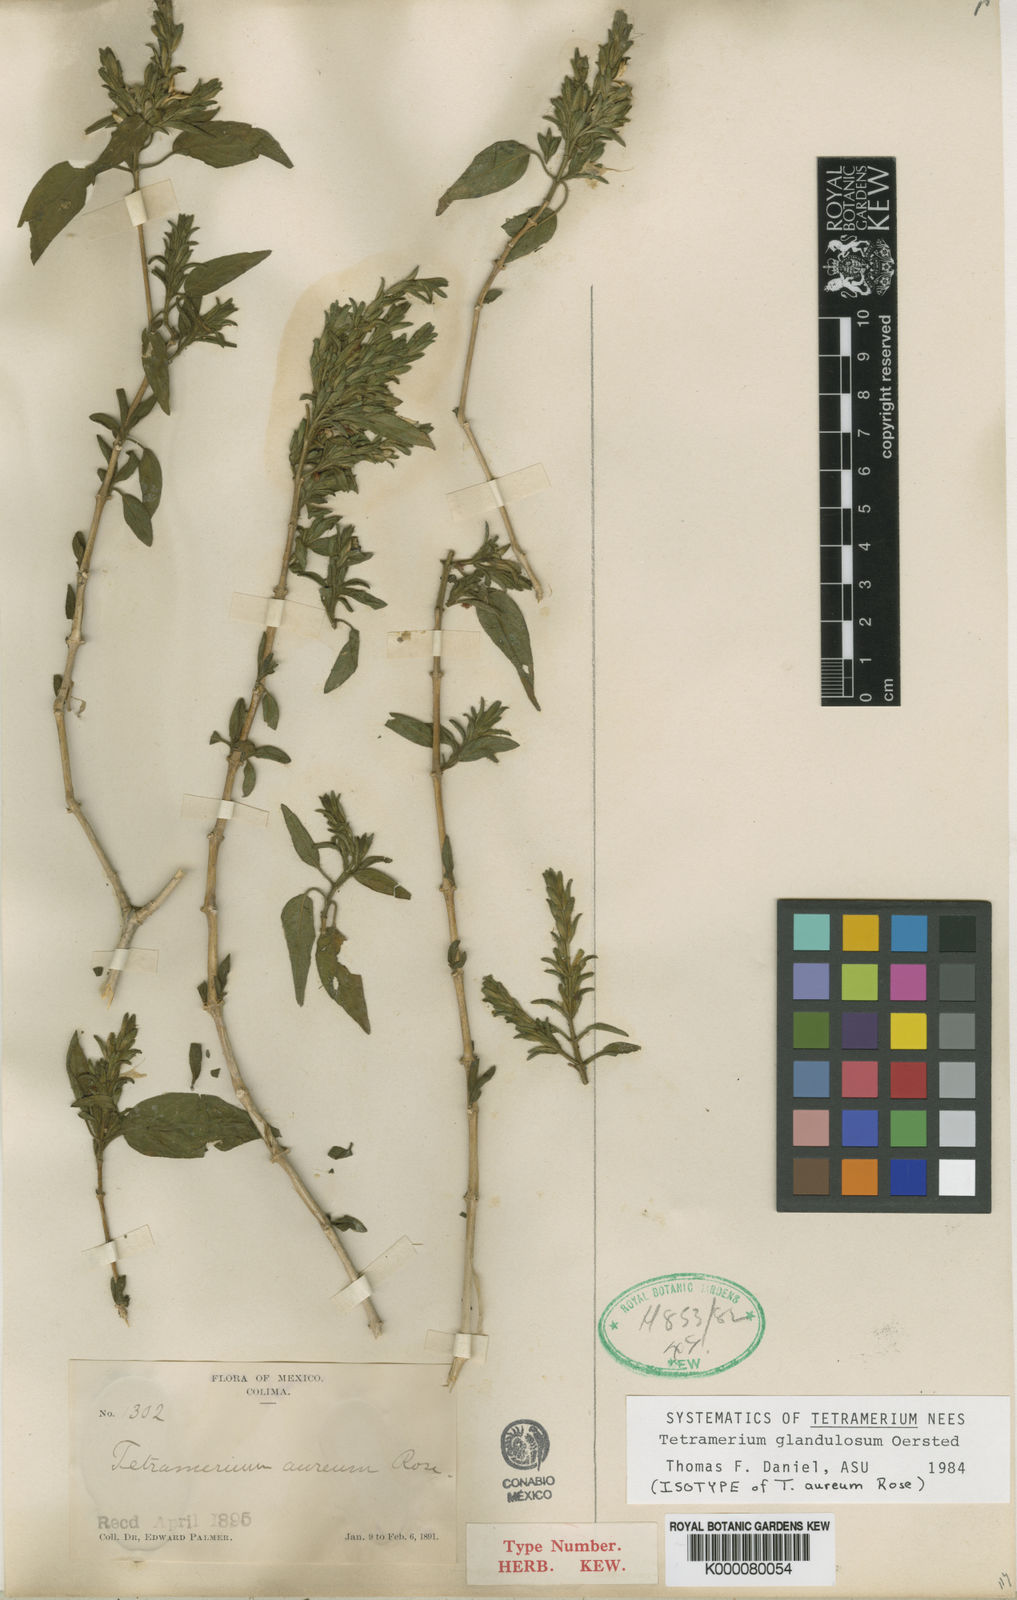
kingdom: Plantae
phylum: Tracheophyta
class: Magnoliopsida
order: Lamiales
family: Acanthaceae
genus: Tetramerium
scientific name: Tetramerium glandulosum
